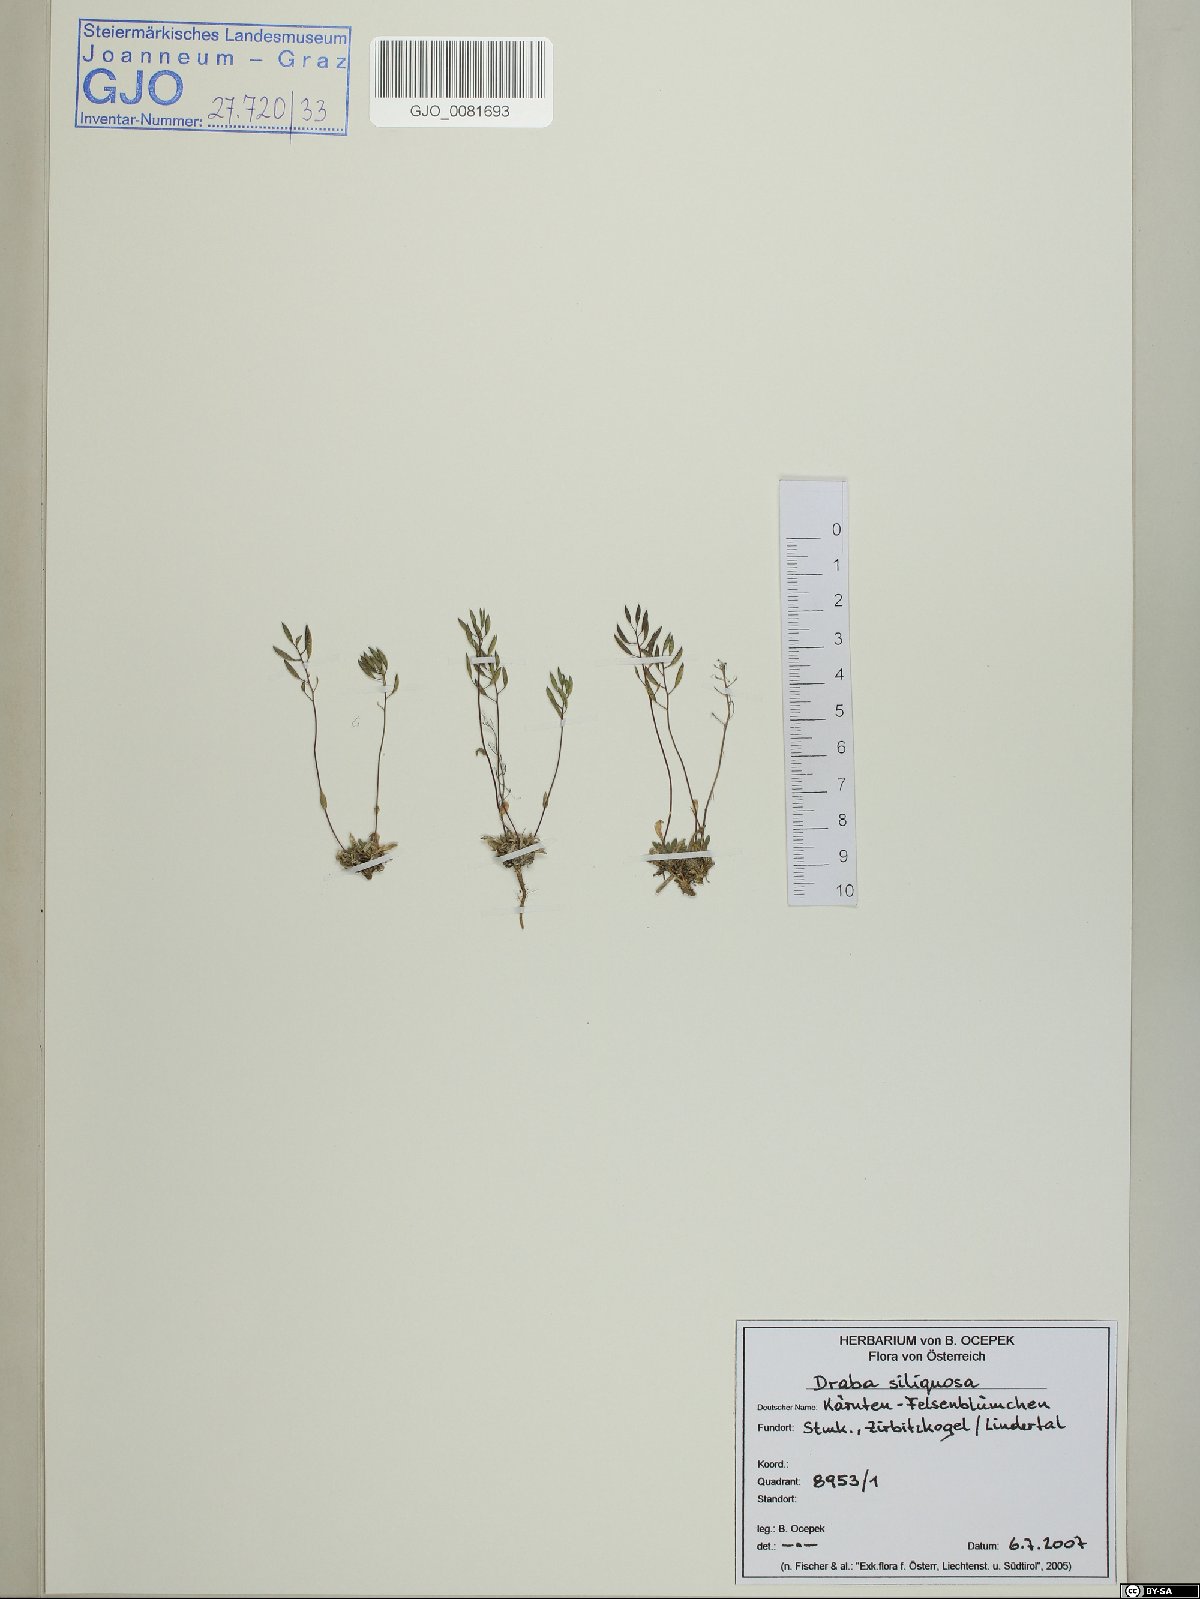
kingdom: Plantae
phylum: Tracheophyta
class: Magnoliopsida
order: Brassicales
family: Brassicaceae
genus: Draba
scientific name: Draba siliquosa
